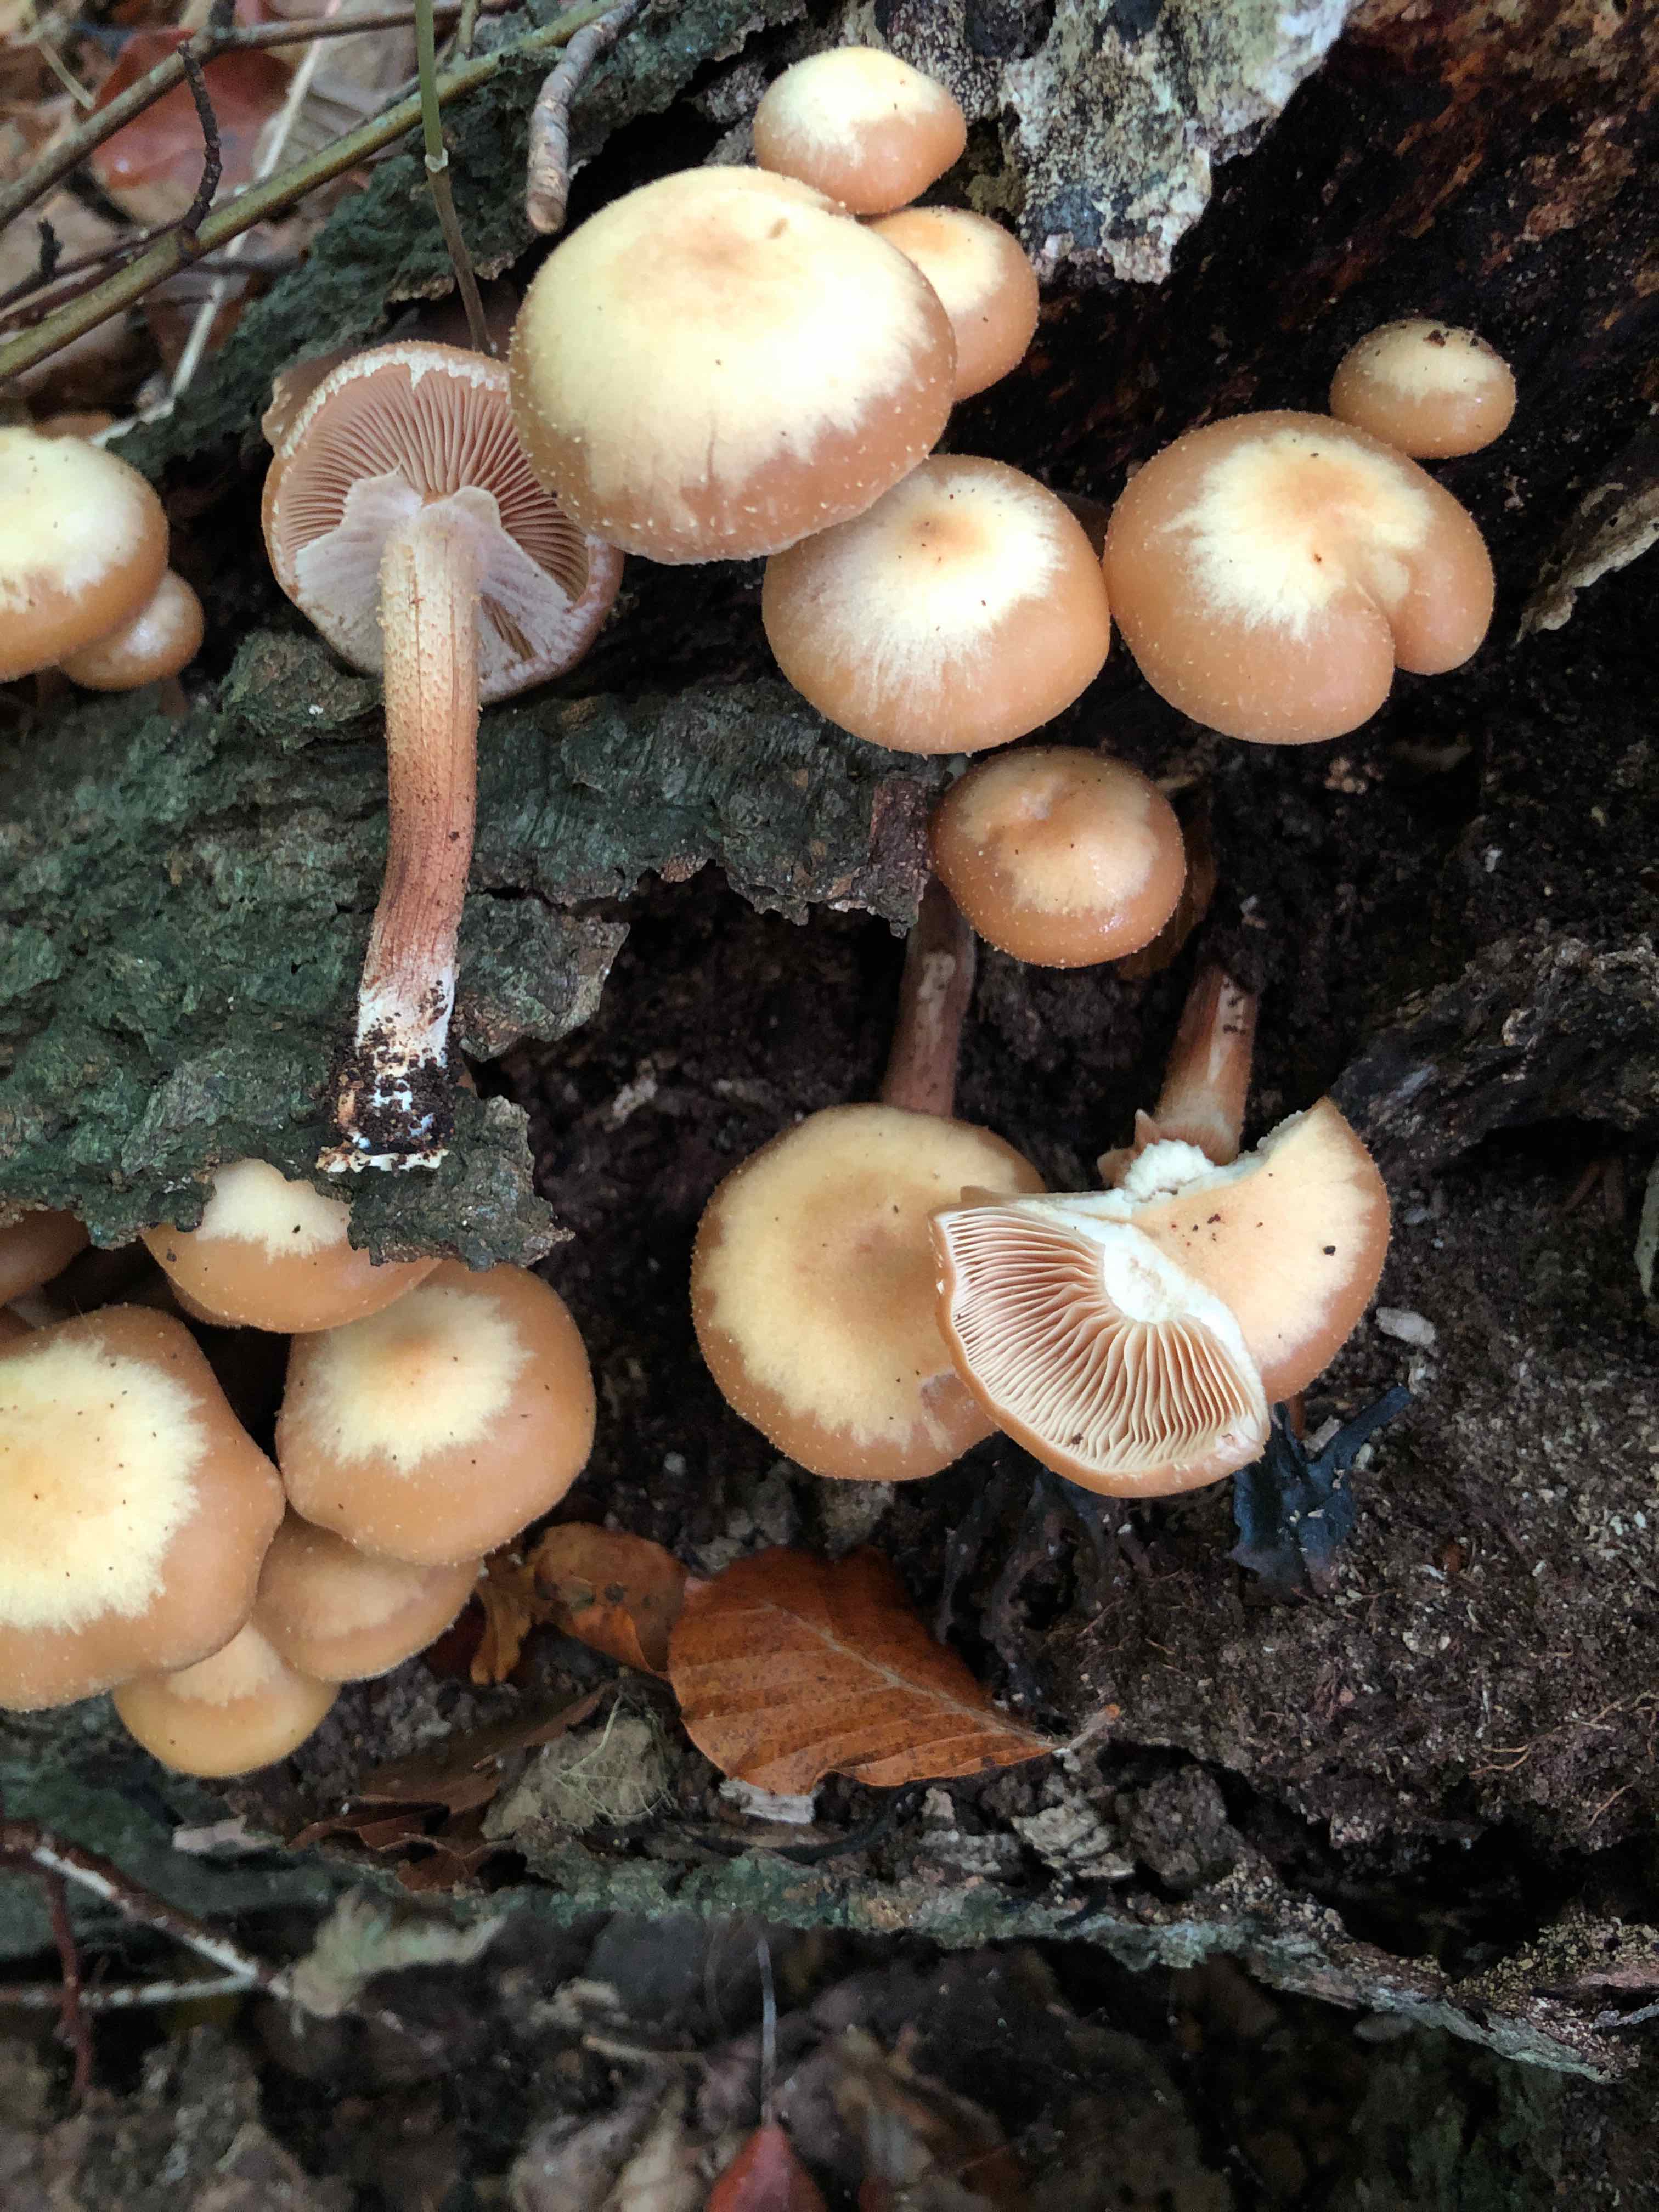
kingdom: Fungi
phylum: Basidiomycota
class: Agaricomycetes
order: Agaricales
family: Strophariaceae
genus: Kuehneromyces
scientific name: Kuehneromyces mutabilis
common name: foranderlig skælhat
